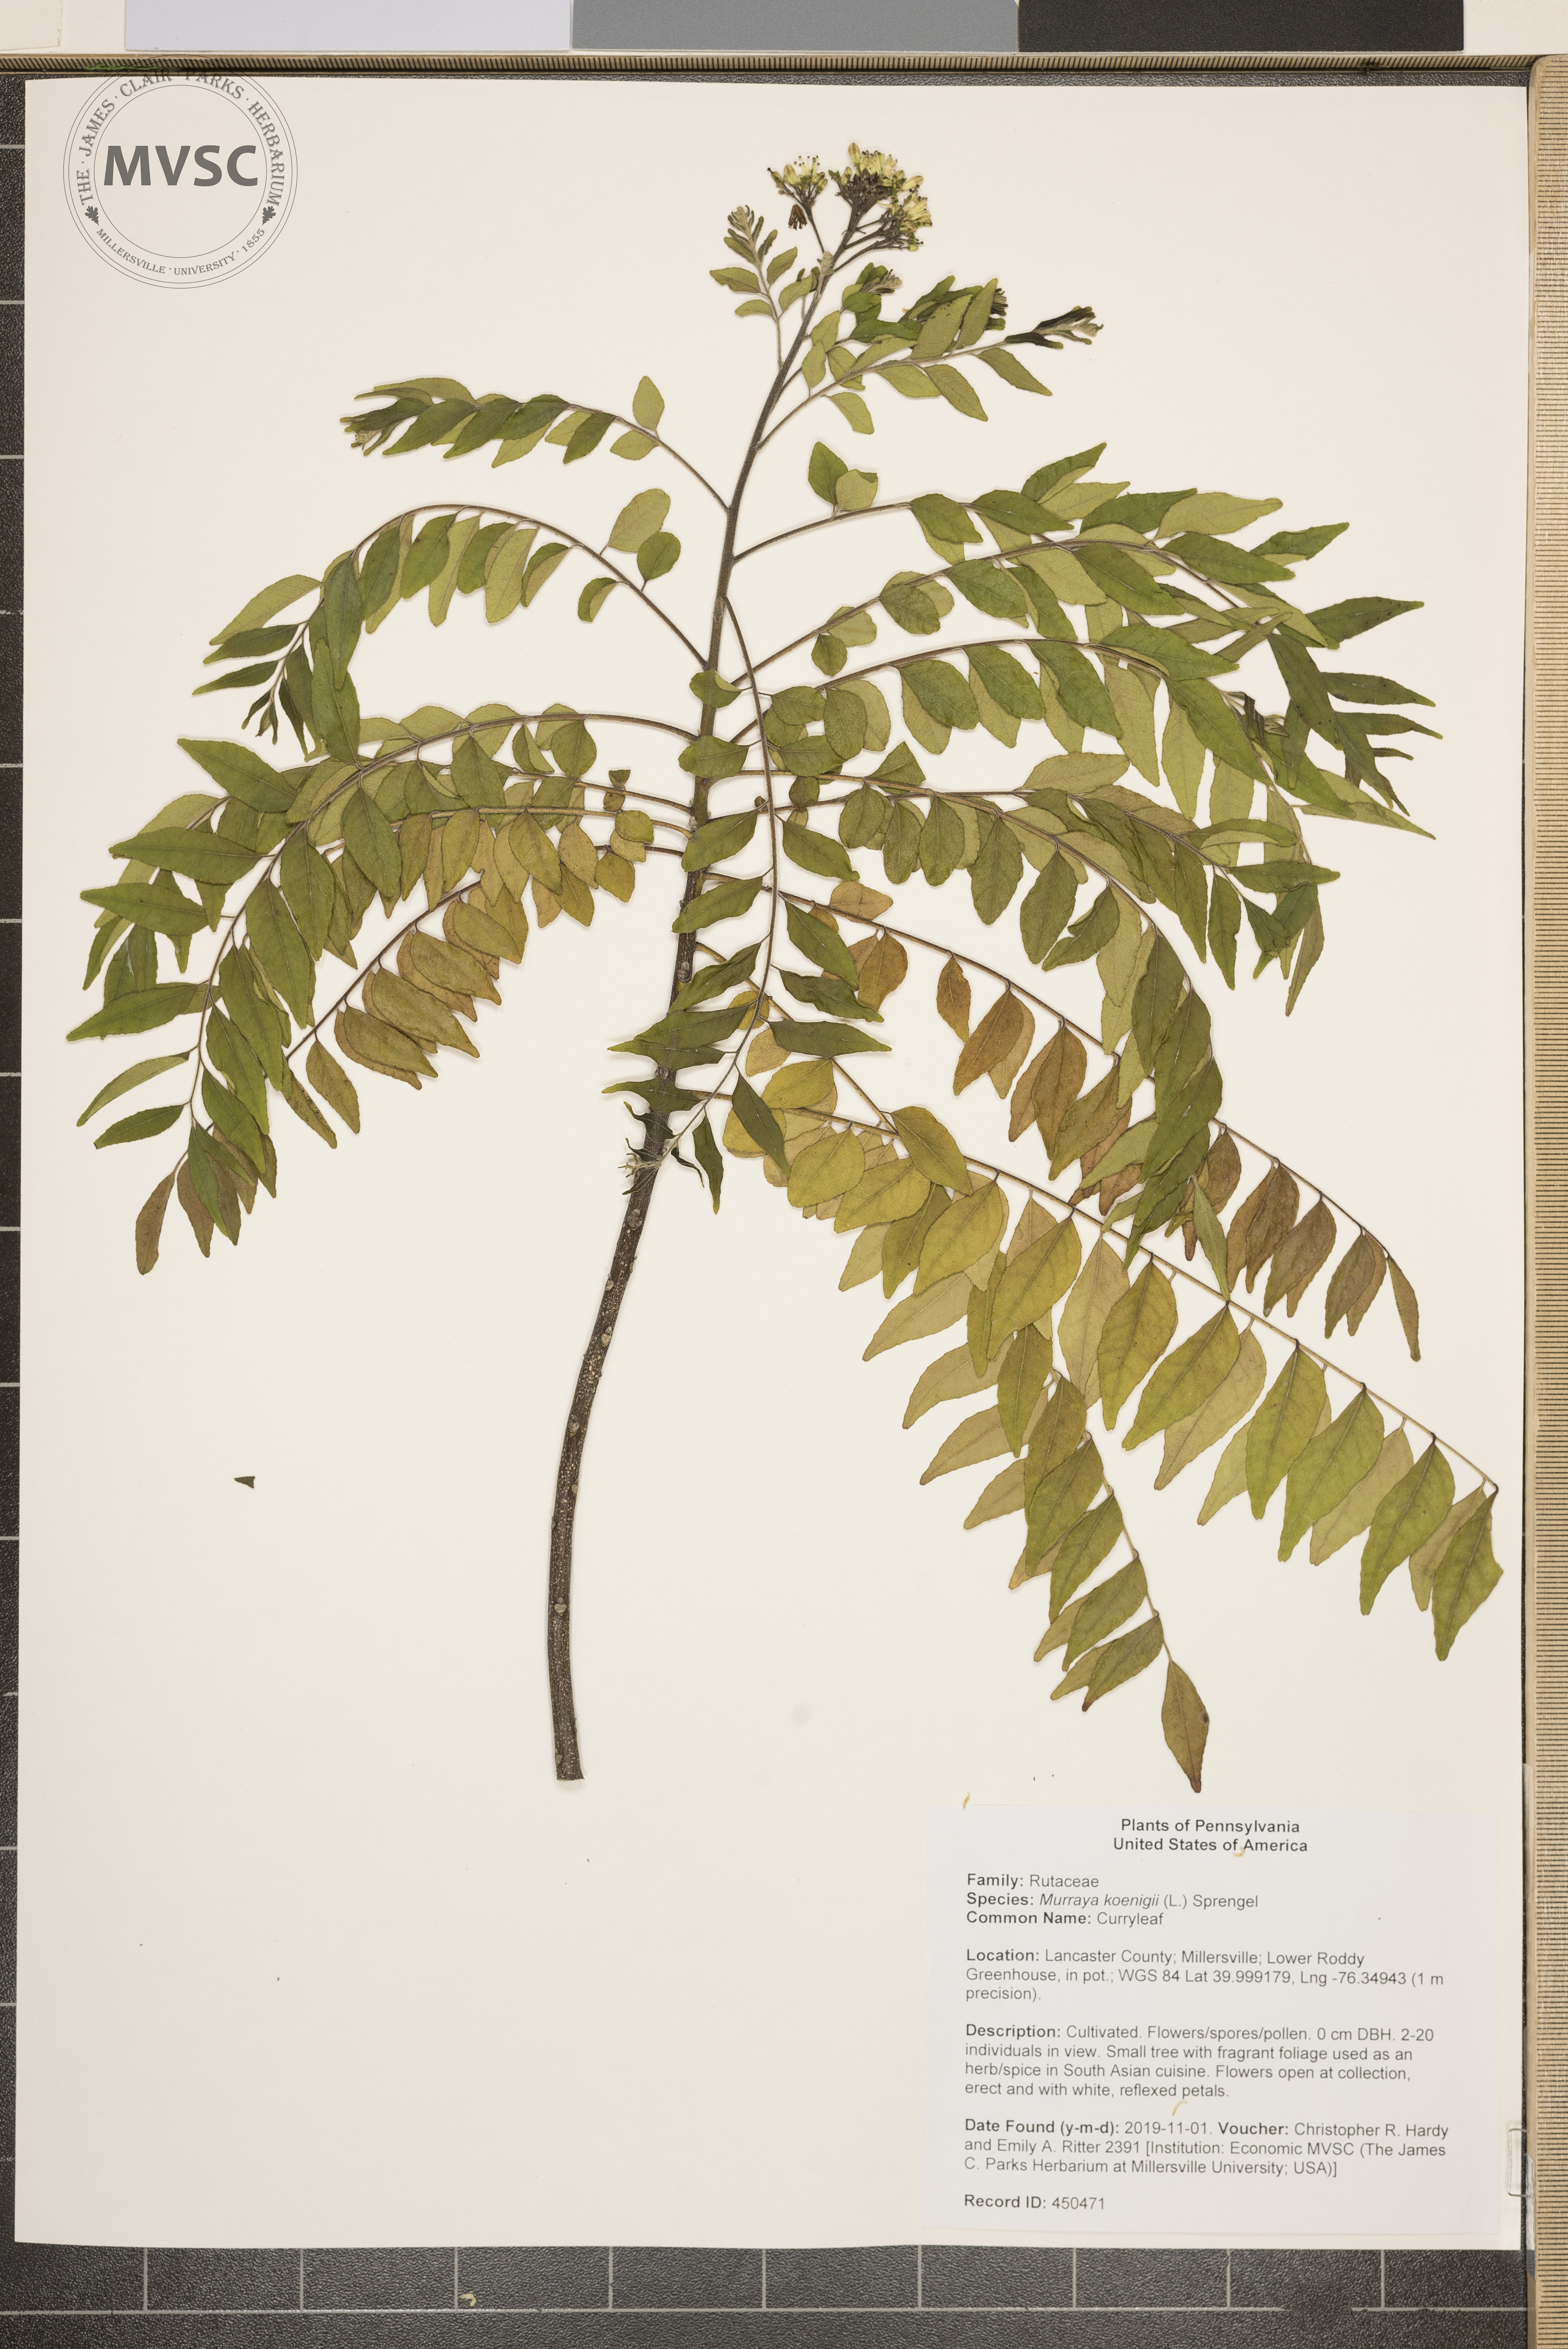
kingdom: Plantae
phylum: Tracheophyta
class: Magnoliopsida
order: Sapindales
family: Rutaceae
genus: Murraya
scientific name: Murraya koenigii
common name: Curryleaf
